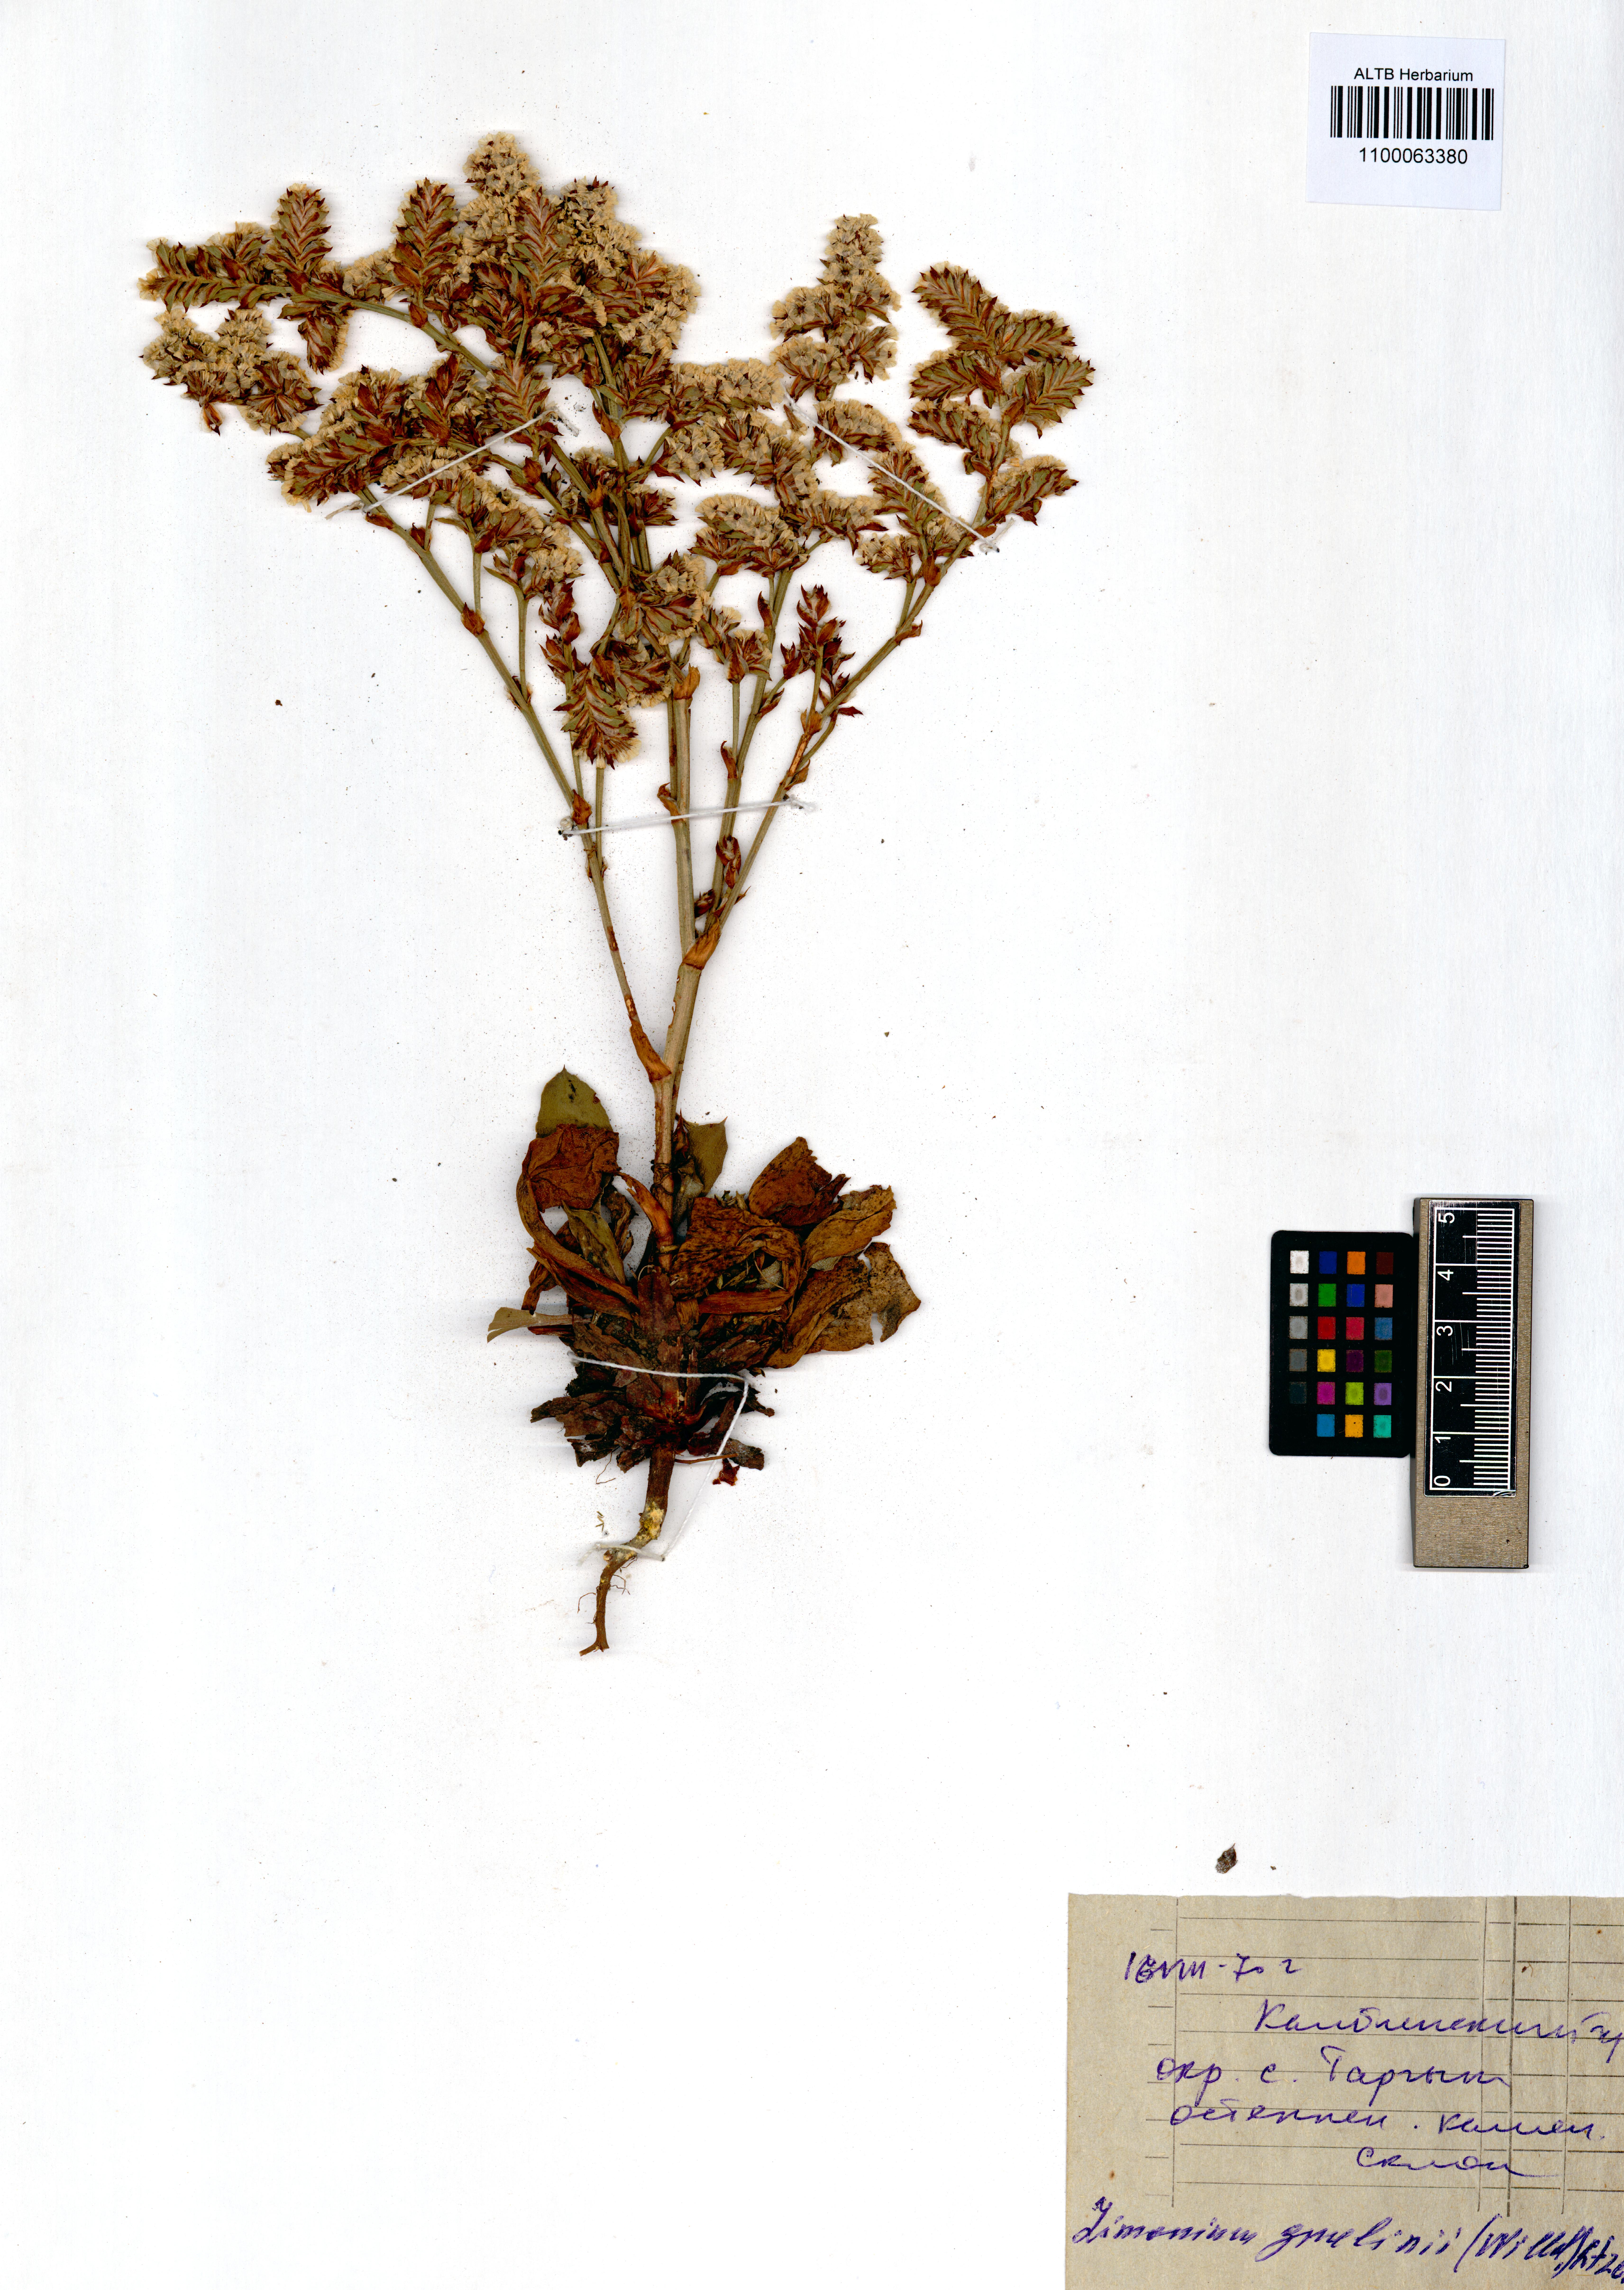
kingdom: Plantae
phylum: Tracheophyta
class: Magnoliopsida
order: Caryophyllales
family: Plumbaginaceae
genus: Limonium
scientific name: Limonium gmelini
